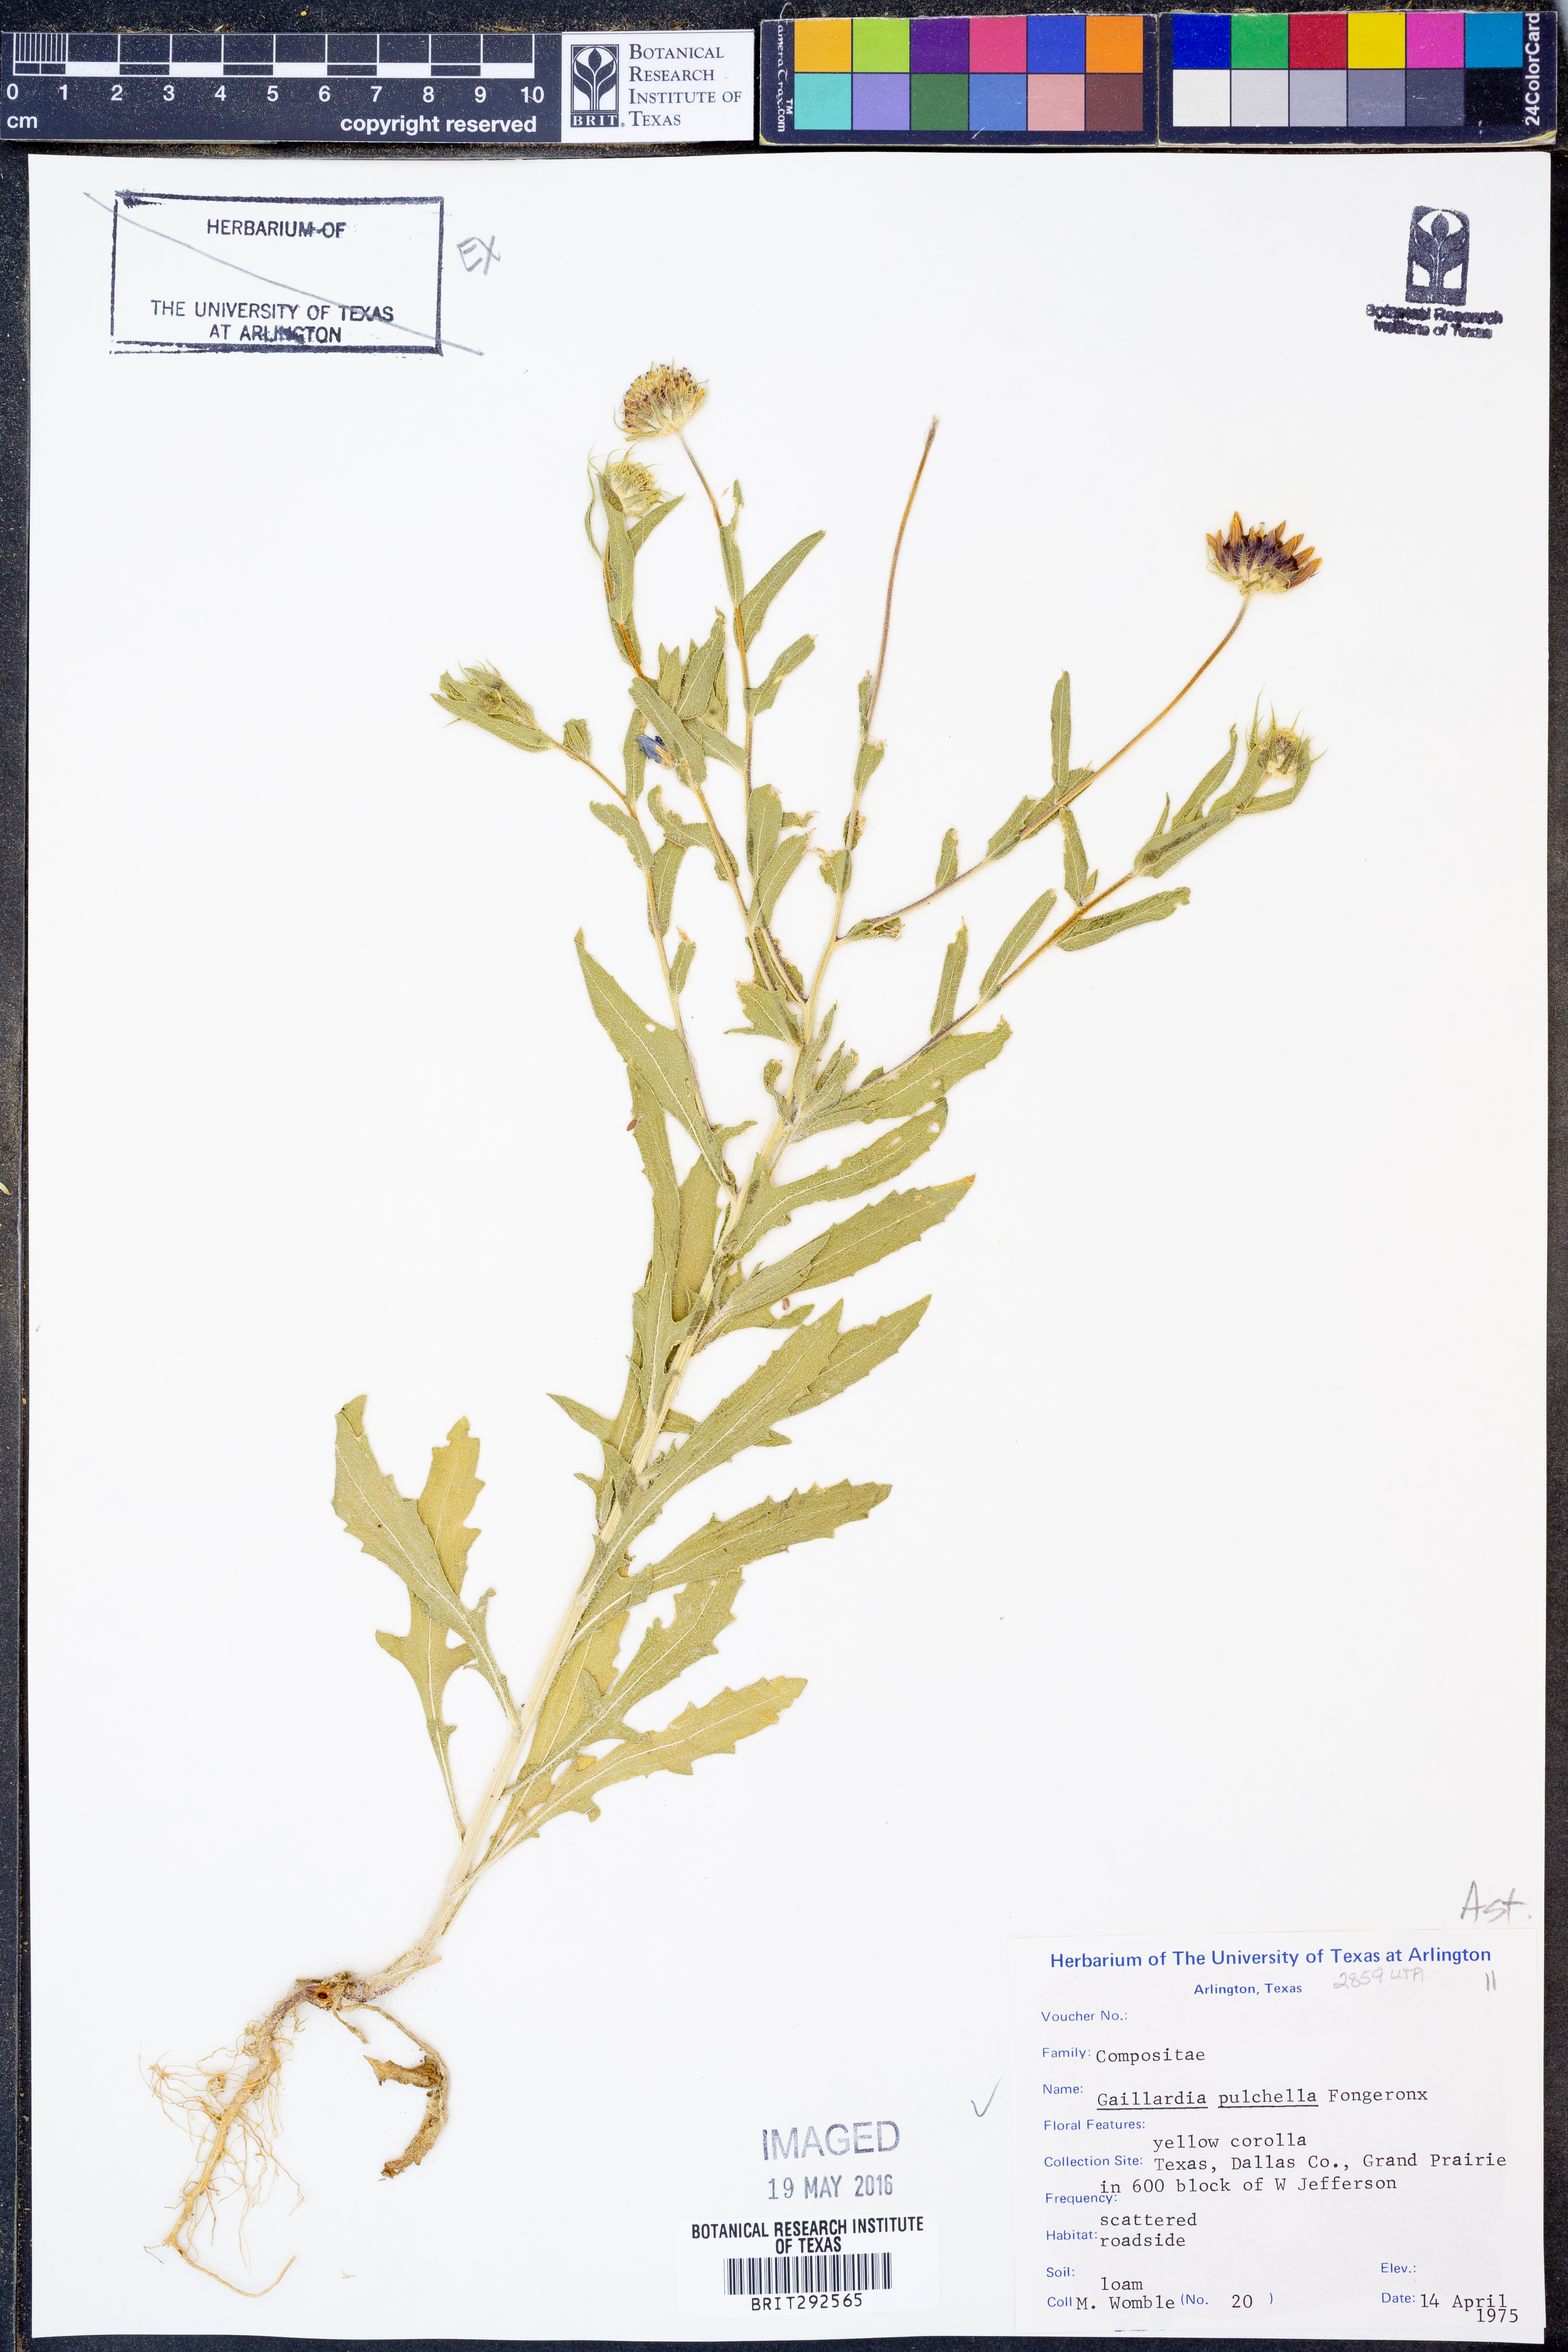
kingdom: Plantae
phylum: Tracheophyta
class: Magnoliopsida
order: Asterales
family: Asteraceae
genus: Gaillardia
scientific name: Gaillardia pulchella
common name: Firewheel
